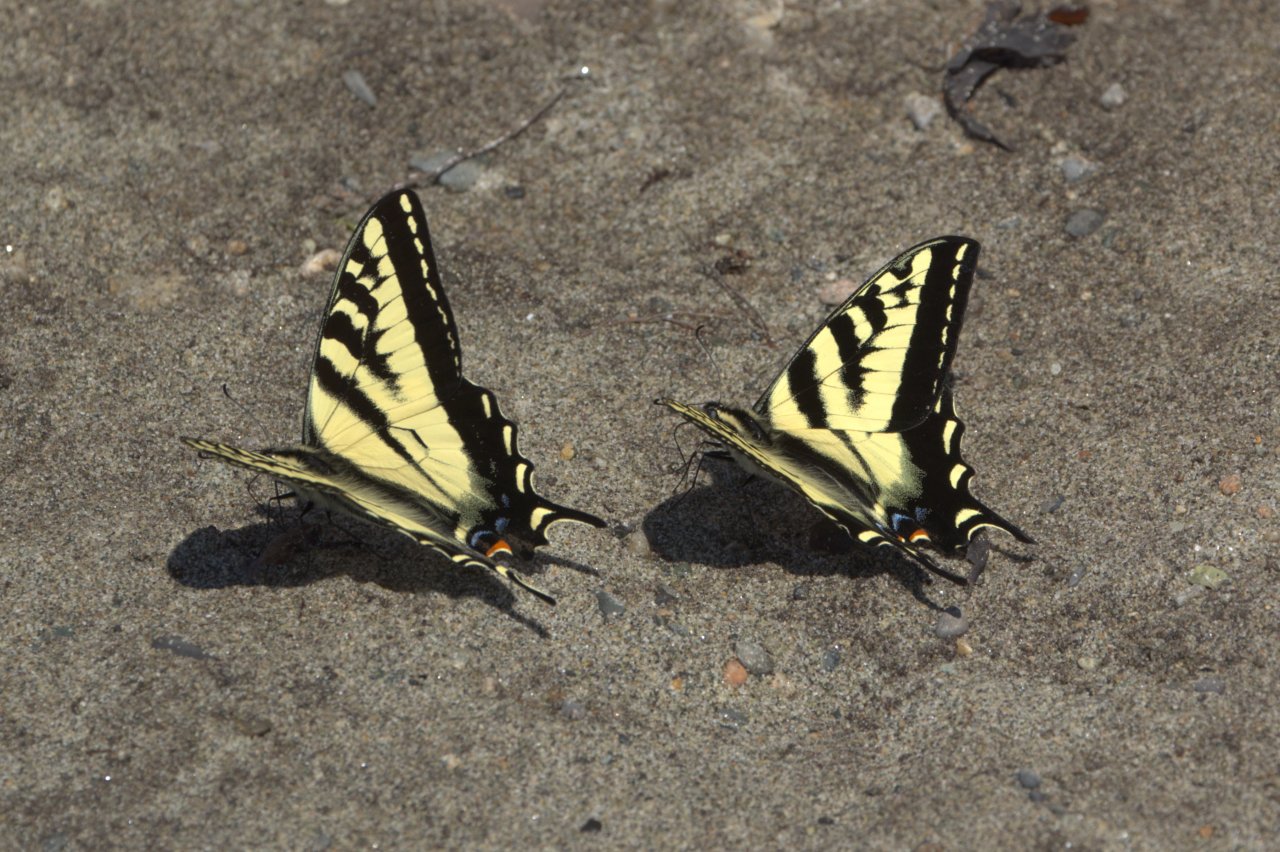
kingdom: Animalia
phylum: Arthropoda
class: Insecta
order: Lepidoptera
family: Papilionidae
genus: Pterourus
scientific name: Pterourus rutulus
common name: Western Tiger Swallowtail
